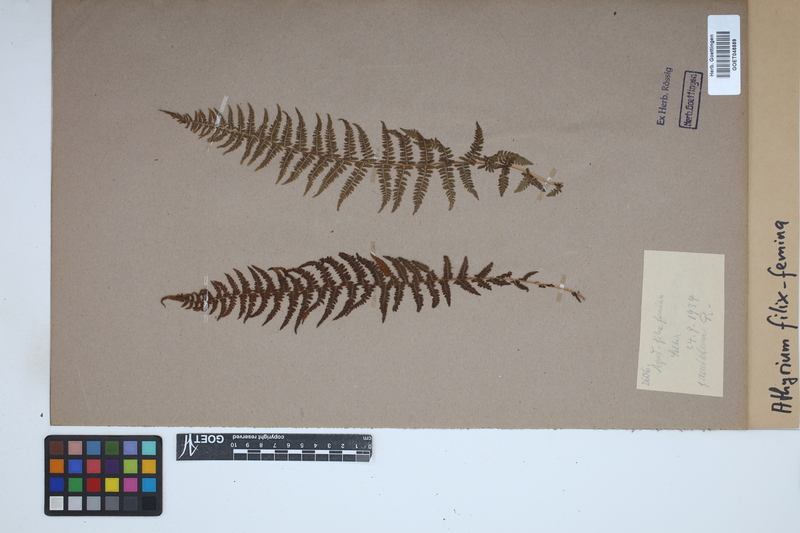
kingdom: Plantae
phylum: Tracheophyta
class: Polypodiopsida
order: Polypodiales
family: Athyriaceae
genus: Athyrium
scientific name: Athyrium filix-femina
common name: Lady fern
